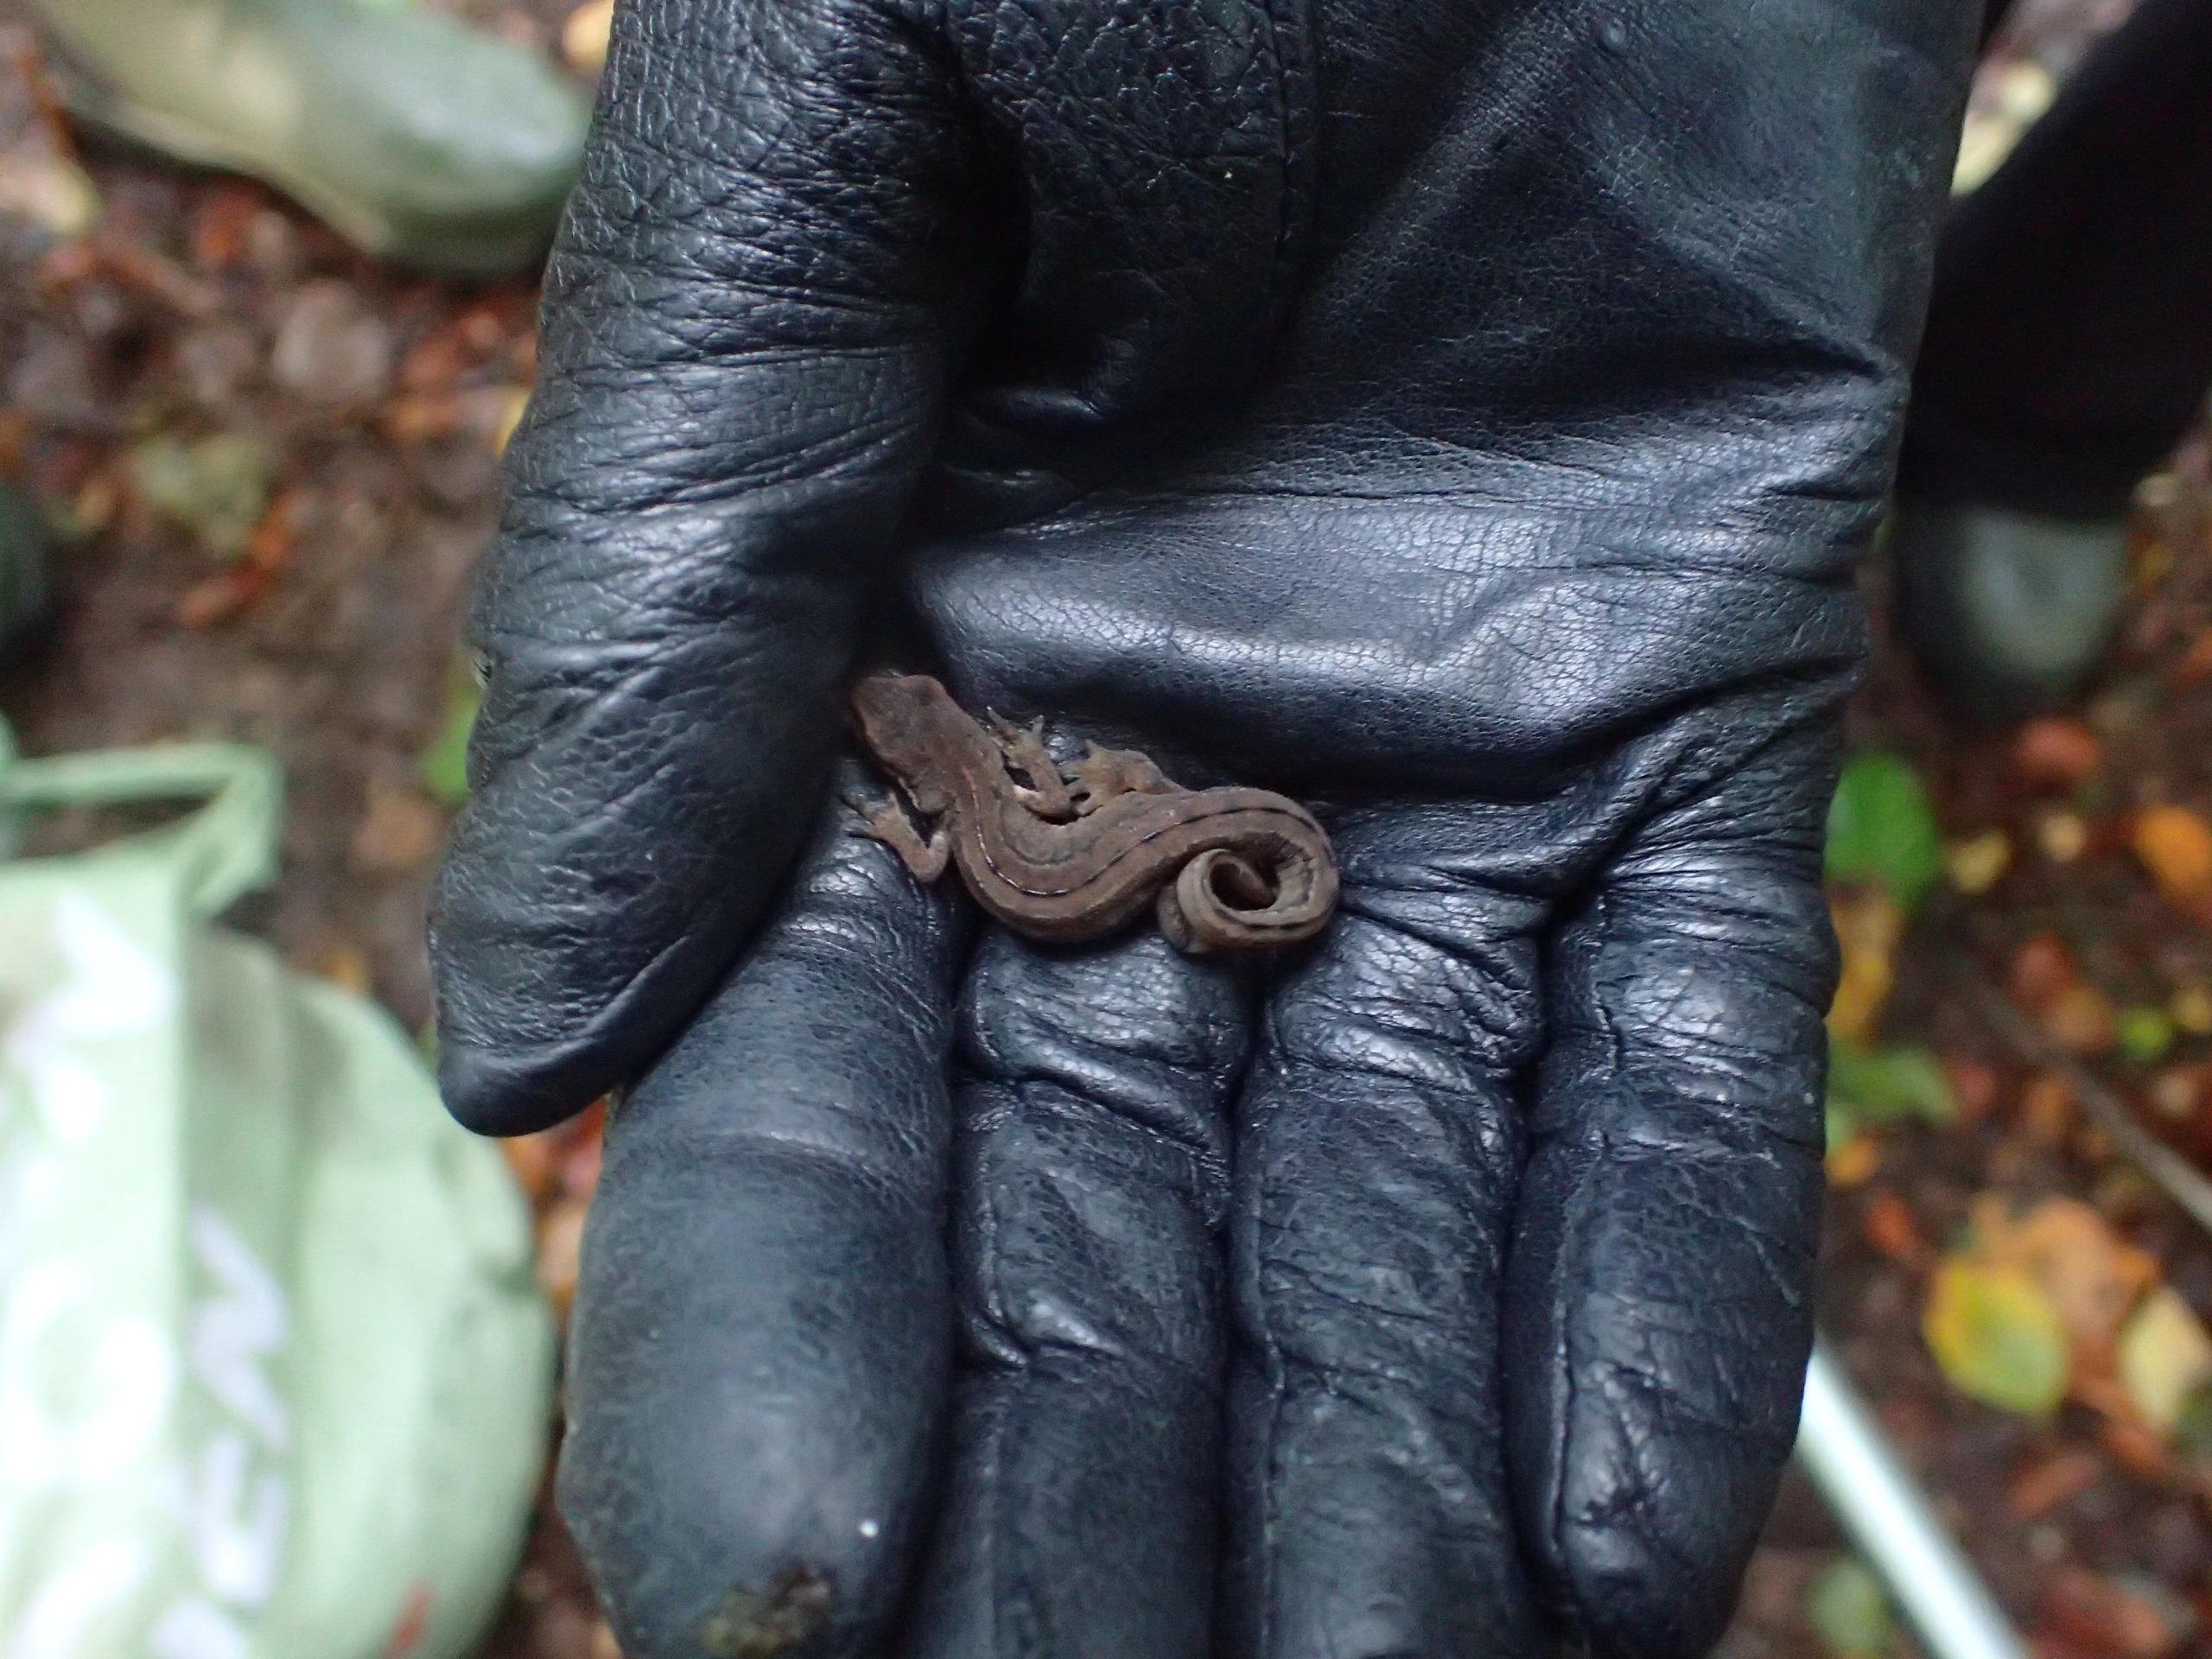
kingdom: Animalia
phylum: Chordata
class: Amphibia
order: Caudata
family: Salamandridae
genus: Lissotriton
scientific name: Lissotriton vulgaris
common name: Lille vandsalamander
